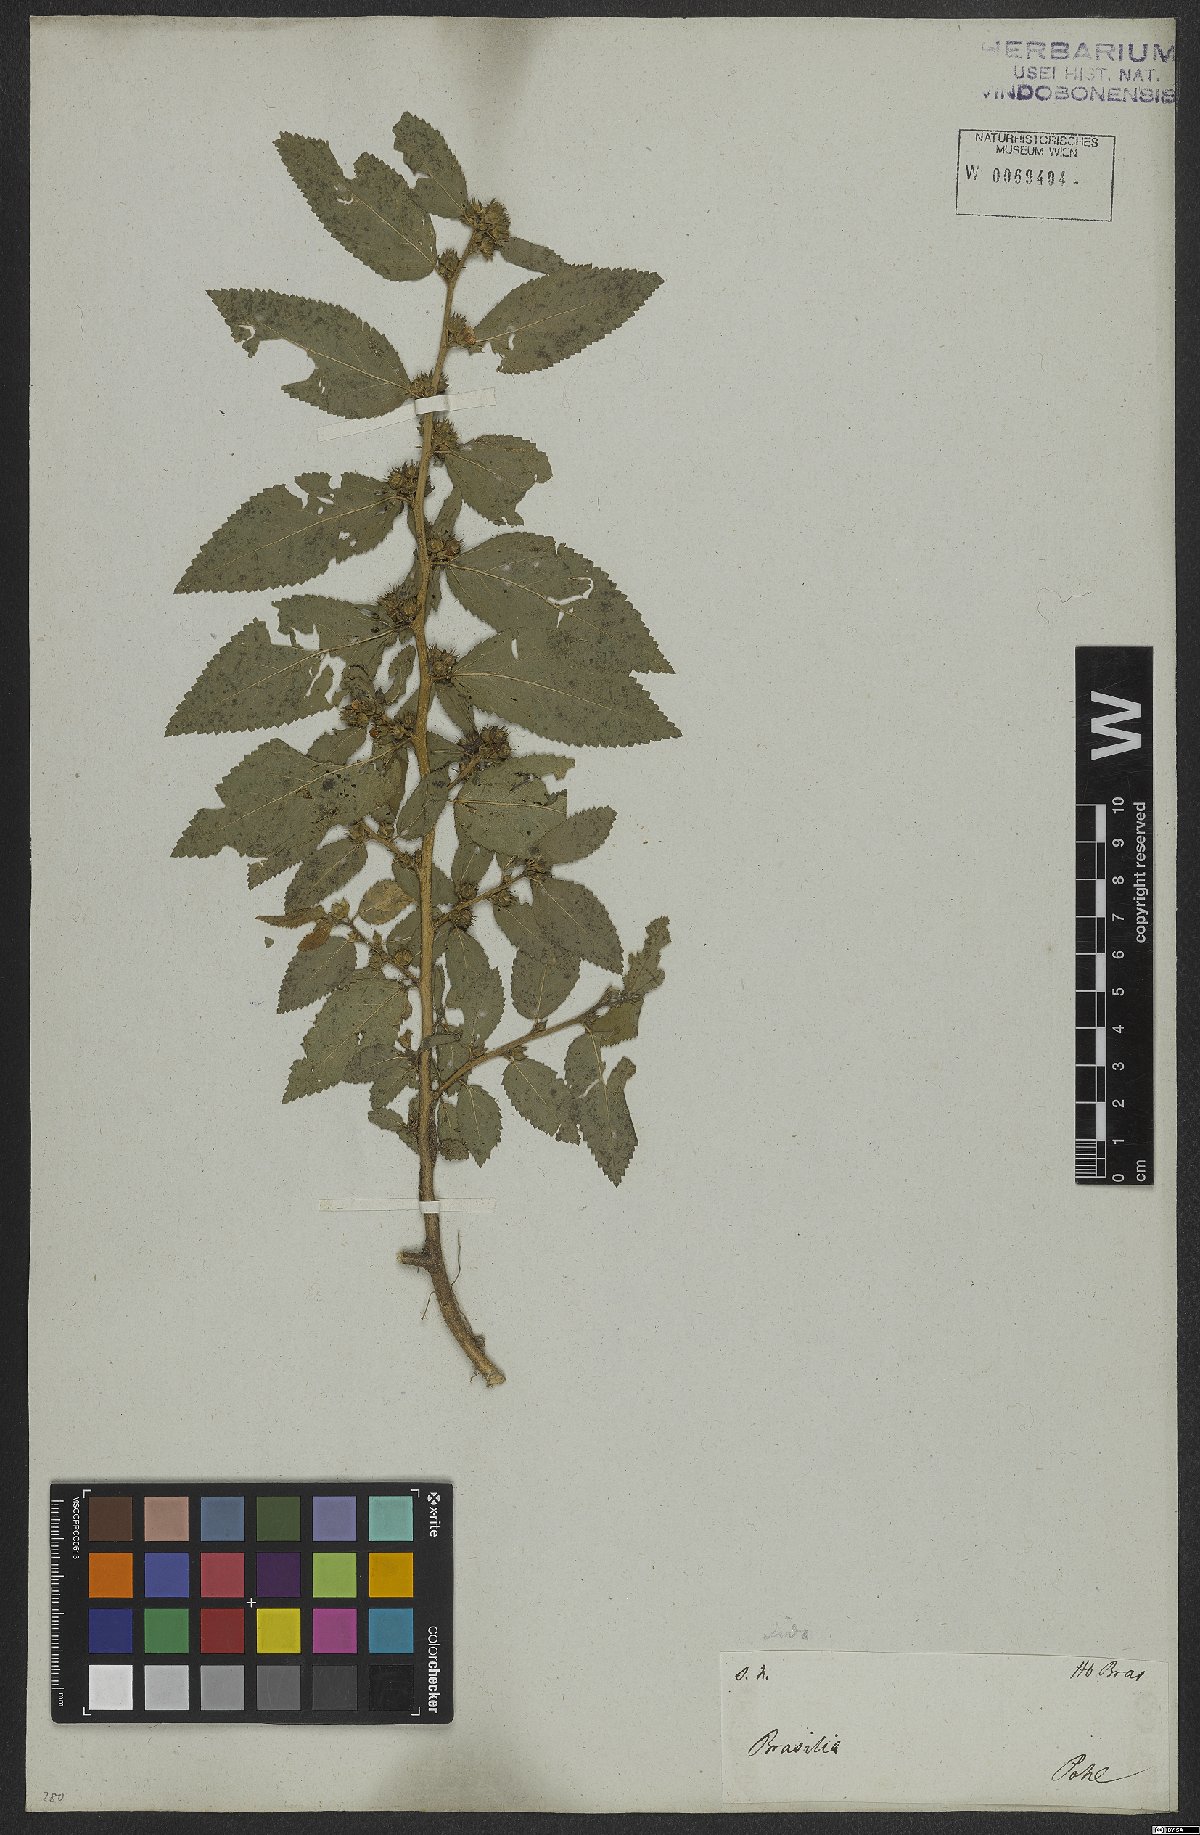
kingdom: Plantae
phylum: Tracheophyta
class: Magnoliopsida
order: Malvales
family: Malvaceae
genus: Sida
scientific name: Sida acuta
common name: Common wireweed
